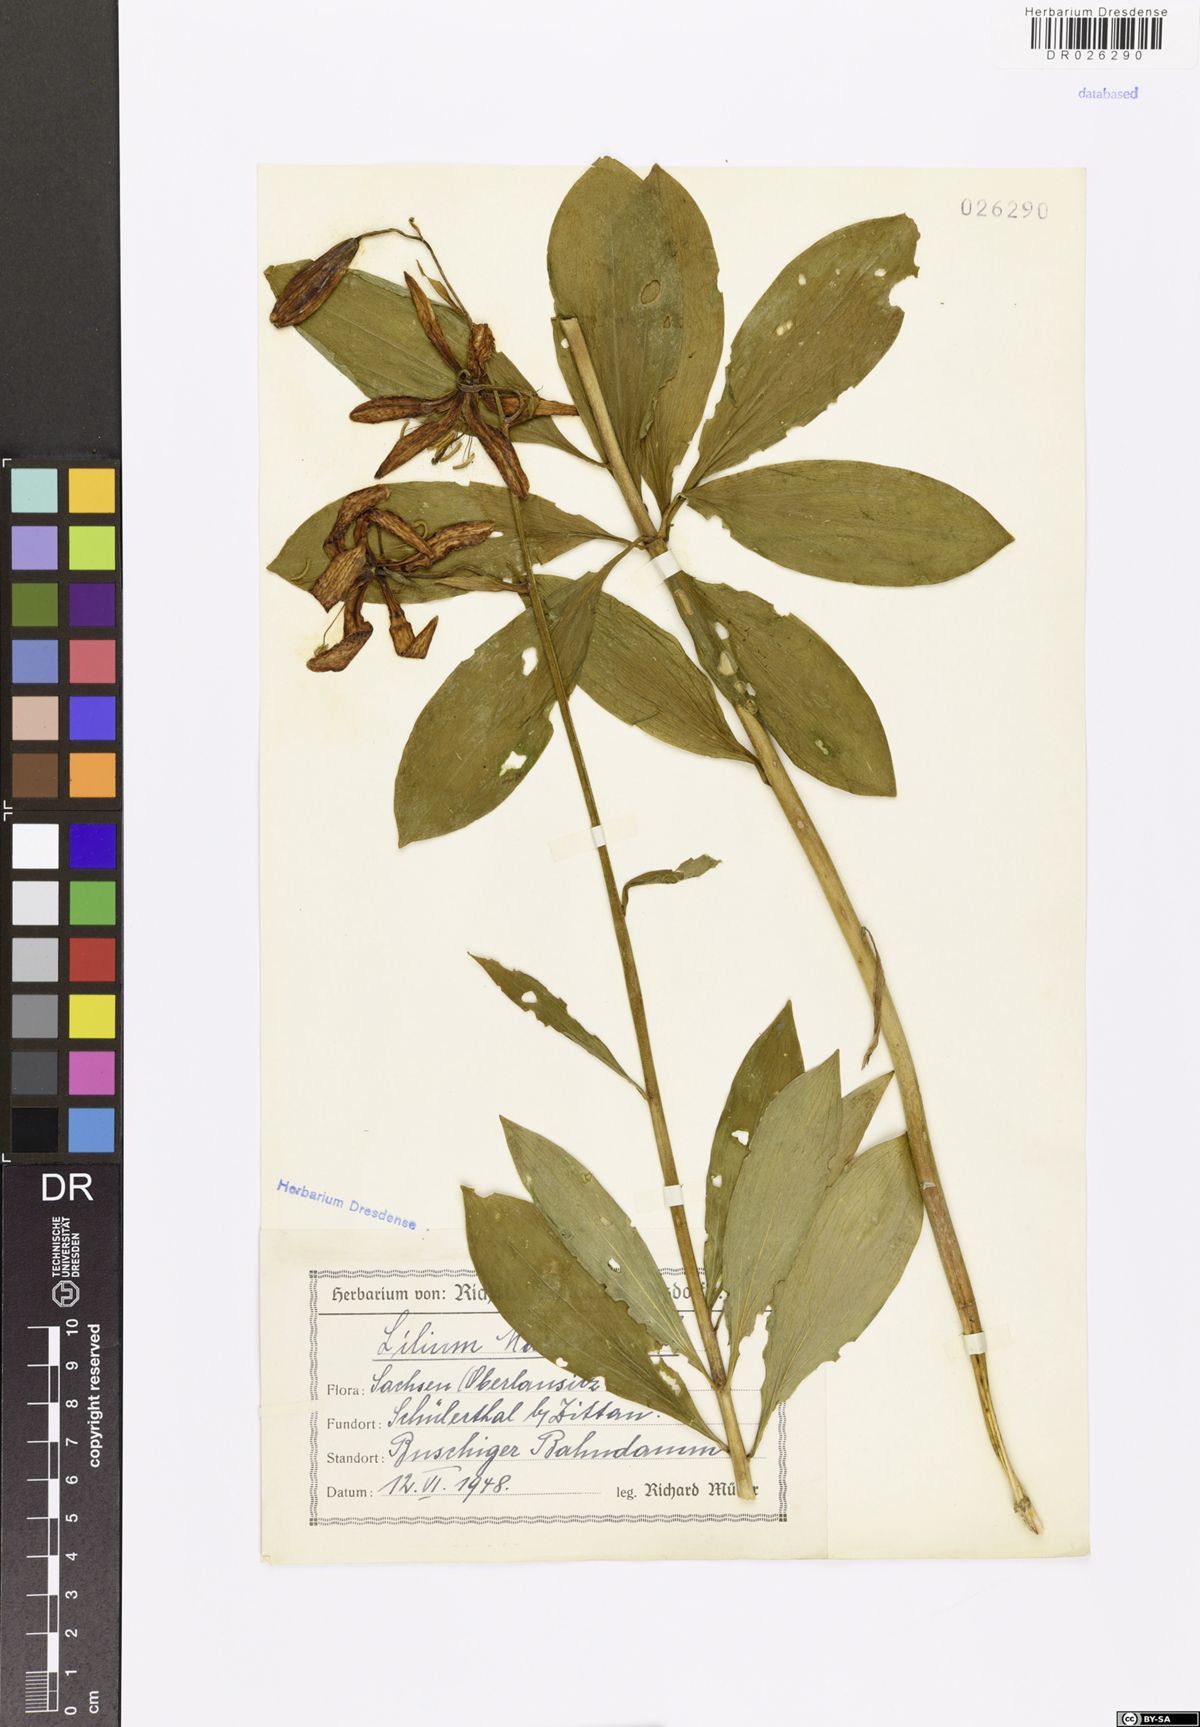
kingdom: Plantae
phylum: Tracheophyta
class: Liliopsida
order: Liliales
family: Liliaceae
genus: Lilium
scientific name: Lilium martagon
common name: Martagon lily
